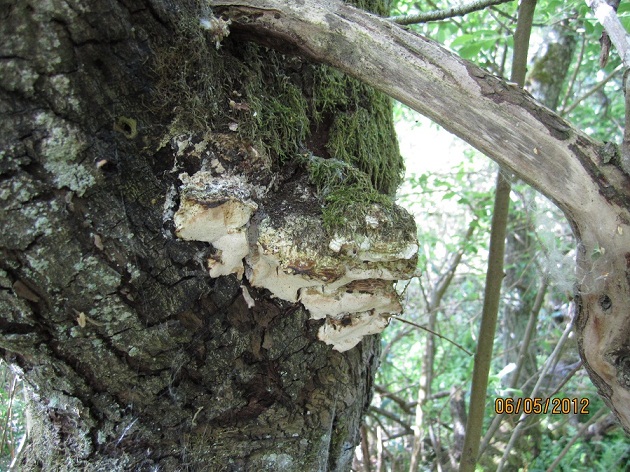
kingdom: Fungi
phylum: Basidiomycota
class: Agaricomycetes
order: Hymenochaetales
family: Oxyporaceae
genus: Oxyporus
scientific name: Oxyporus populinus
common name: sammenvokset trylleporesvamp
